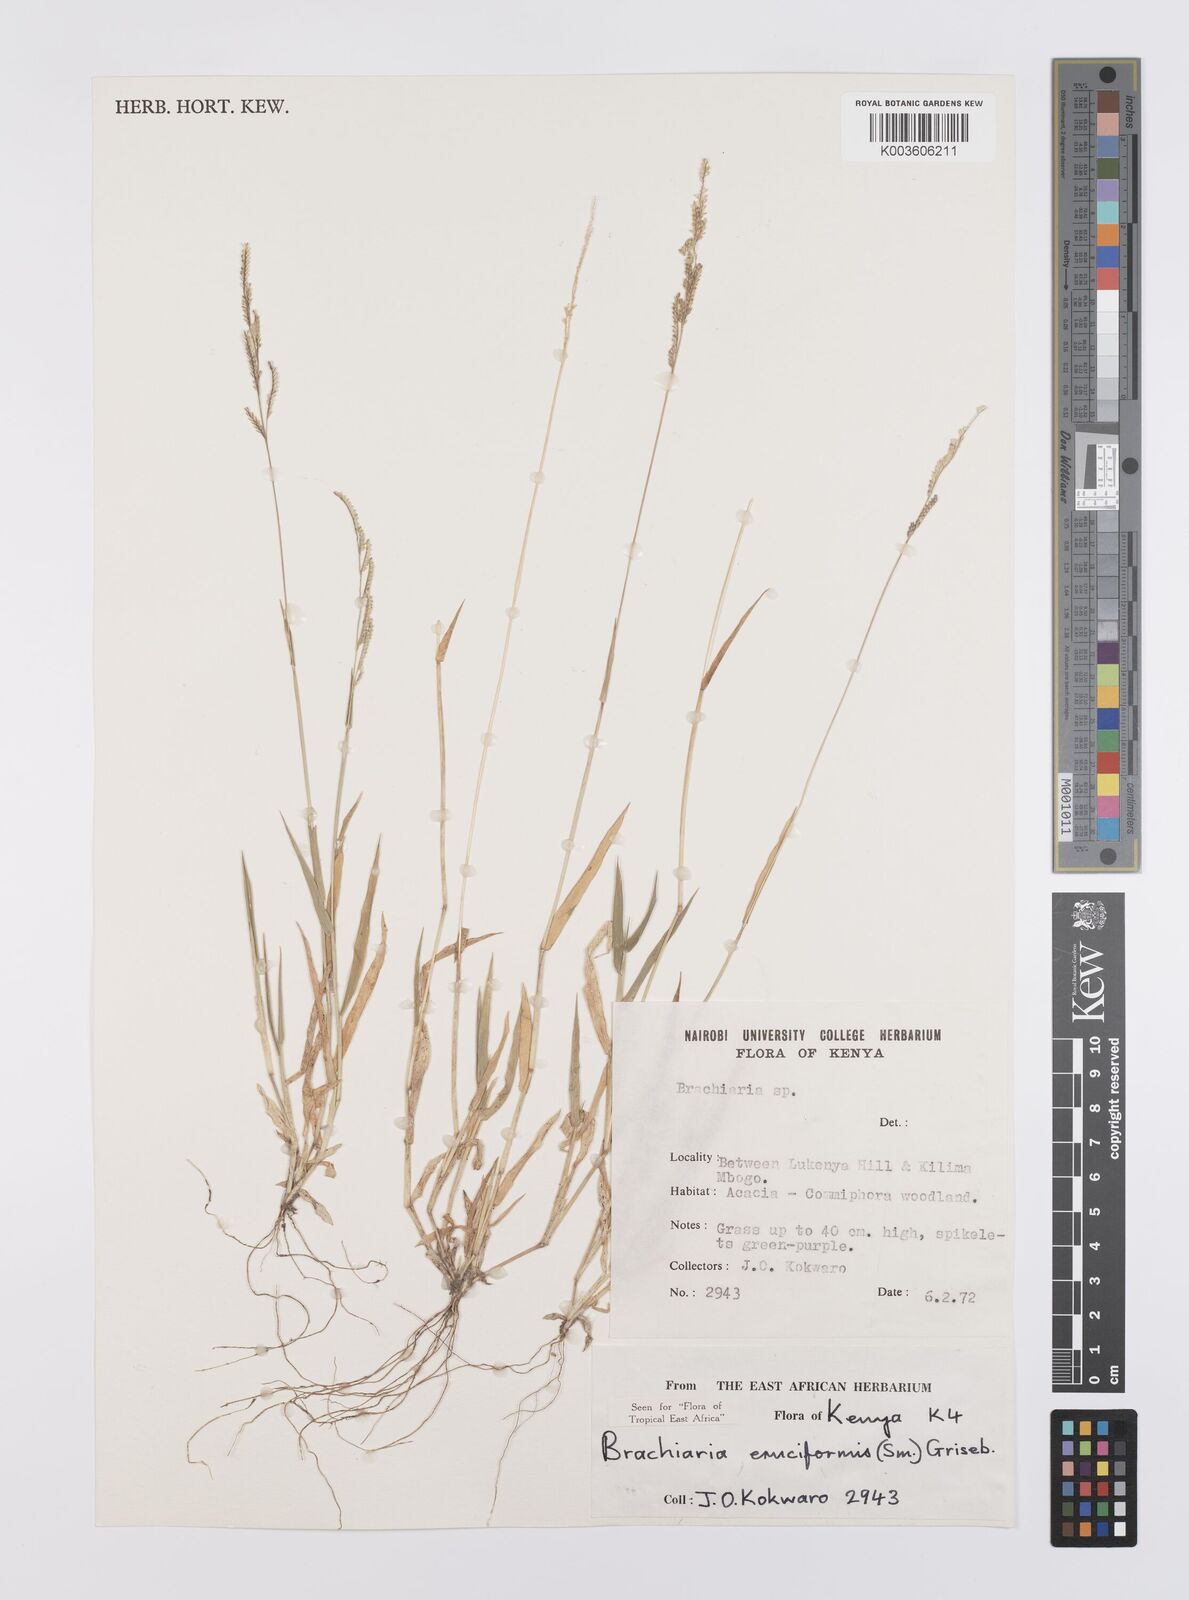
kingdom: Plantae
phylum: Tracheophyta
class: Liliopsida
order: Poales
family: Poaceae
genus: Moorochloa
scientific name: Moorochloa eruciformis
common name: Sweet signalgrass
